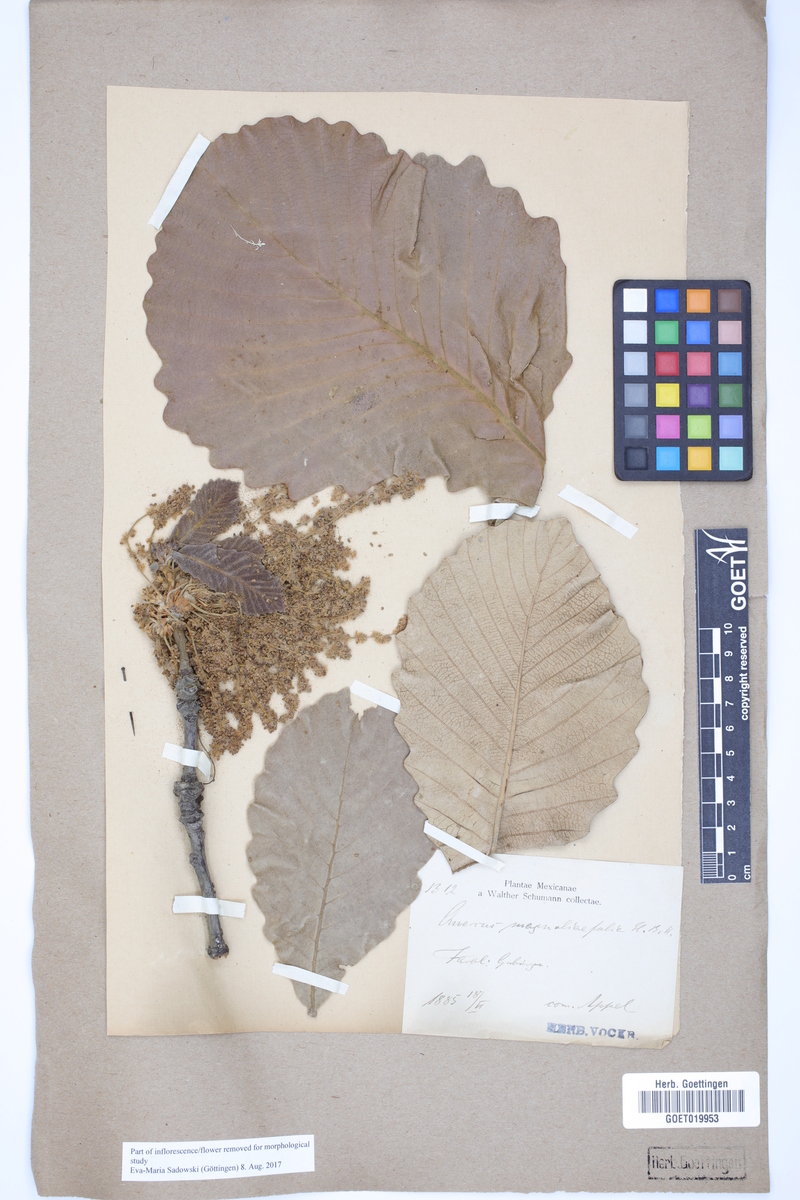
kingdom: Plantae
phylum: Tracheophyta
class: Magnoliopsida
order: Fagales
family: Fagaceae
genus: Quercus
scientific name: Quercus magnoliifolia
